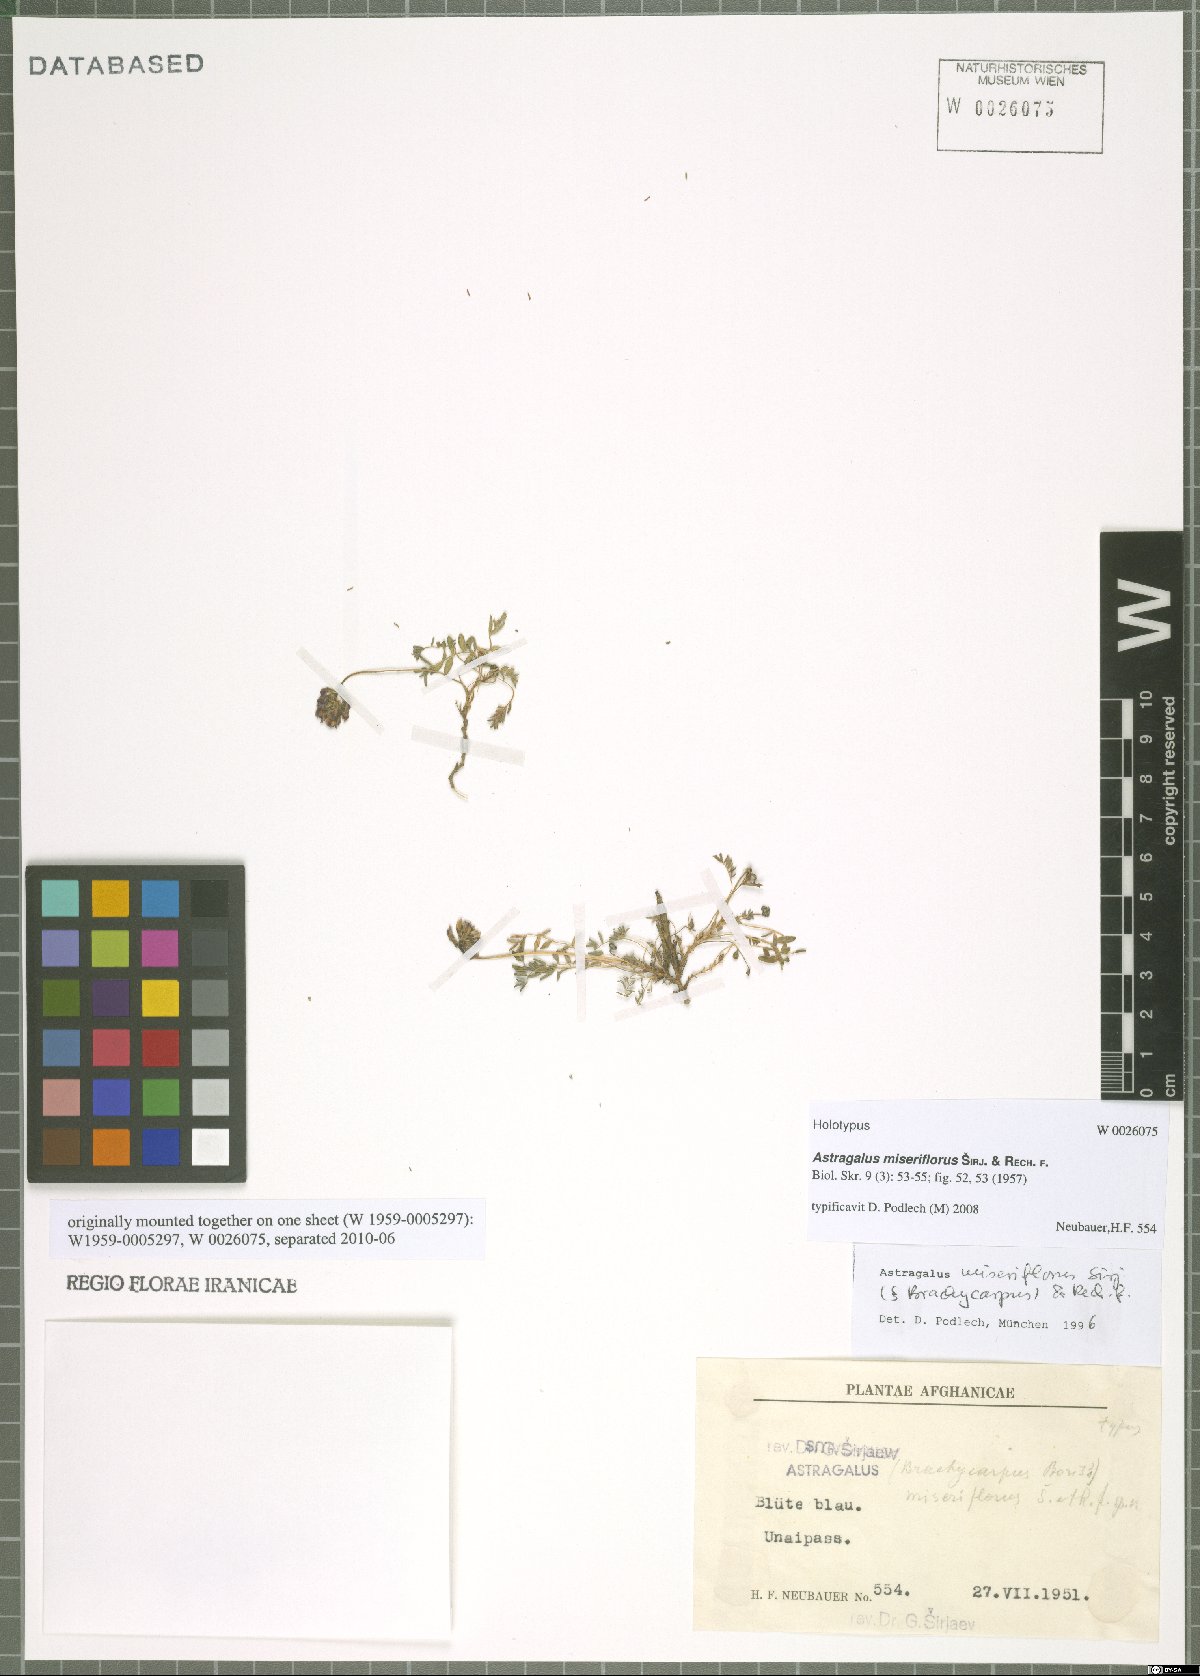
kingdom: Plantae
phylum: Tracheophyta
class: Magnoliopsida
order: Fabales
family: Fabaceae
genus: Astragalus
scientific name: Astragalus miseriflorus
